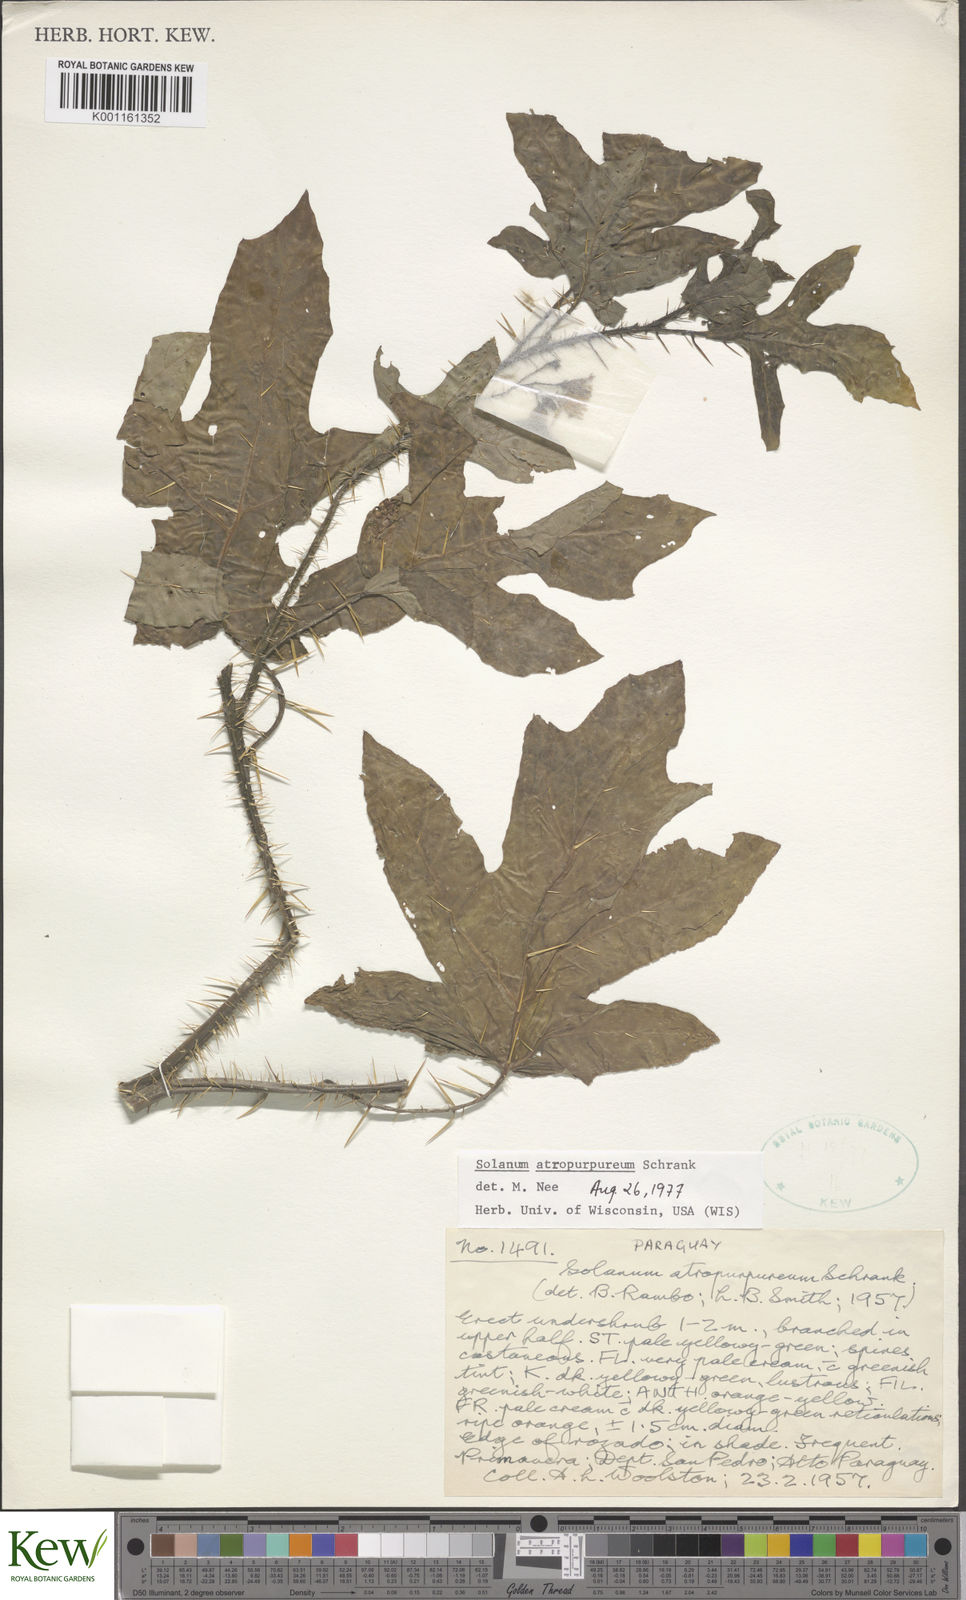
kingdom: Plantae
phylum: Tracheophyta
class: Magnoliopsida
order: Solanales
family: Solanaceae
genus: Solanum
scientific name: Solanum atropurpureum
